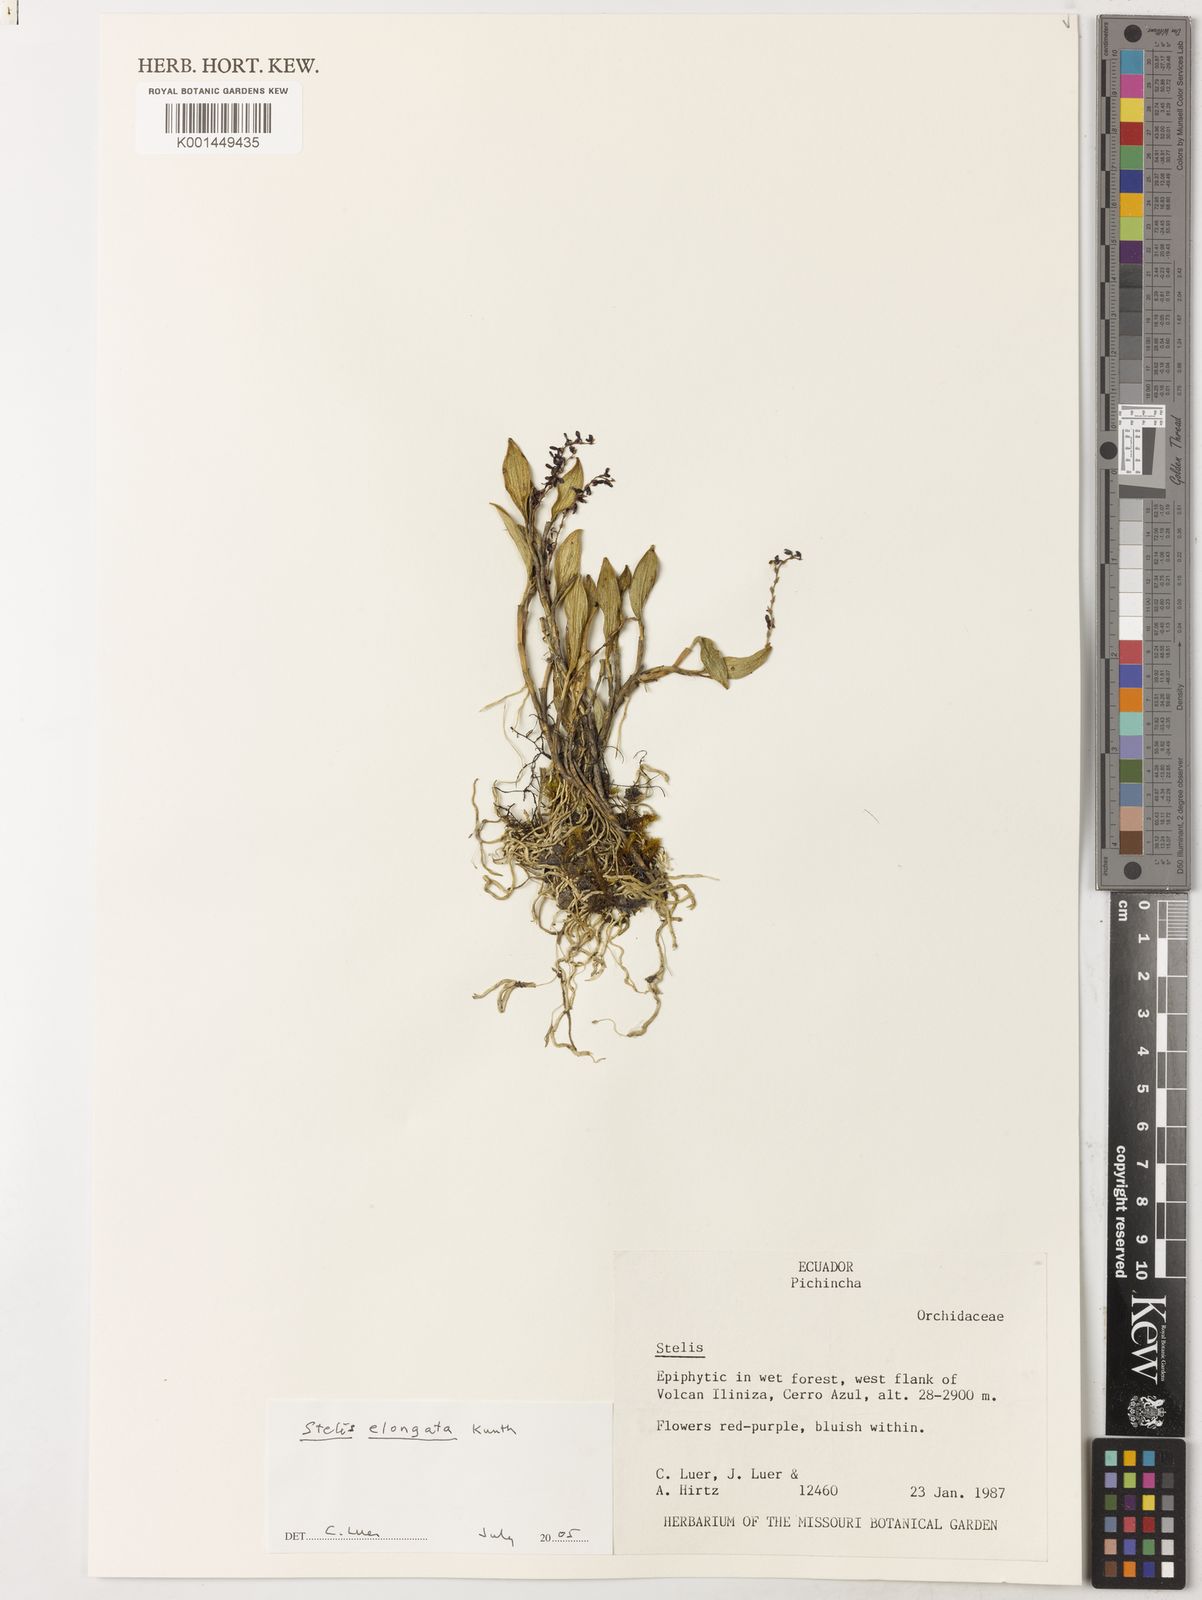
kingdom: Plantae
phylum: Tracheophyta
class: Liliopsida
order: Asparagales
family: Orchidaceae
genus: Stelis
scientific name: Stelis elongata
